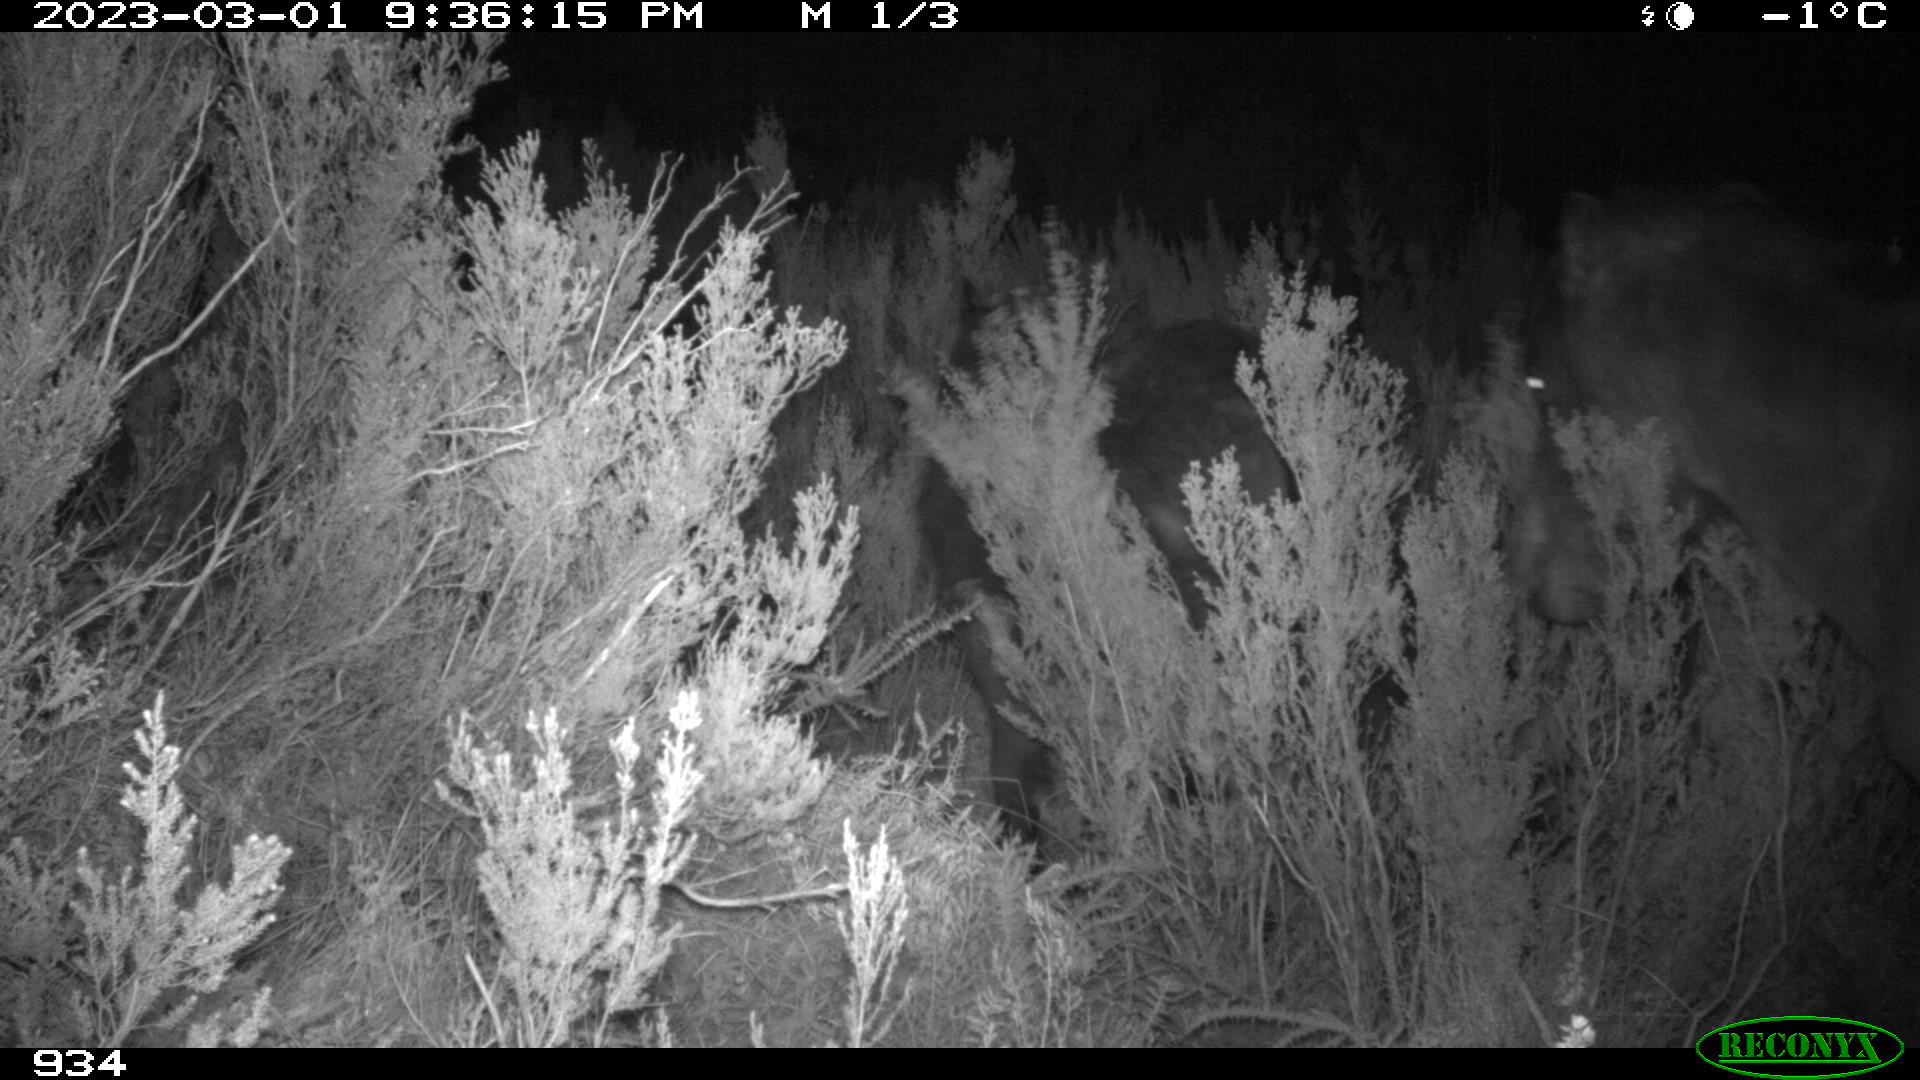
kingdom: Animalia
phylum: Chordata
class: Mammalia
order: Perissodactyla
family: Equidae
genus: Equus
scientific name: Equus caballus
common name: Horse
